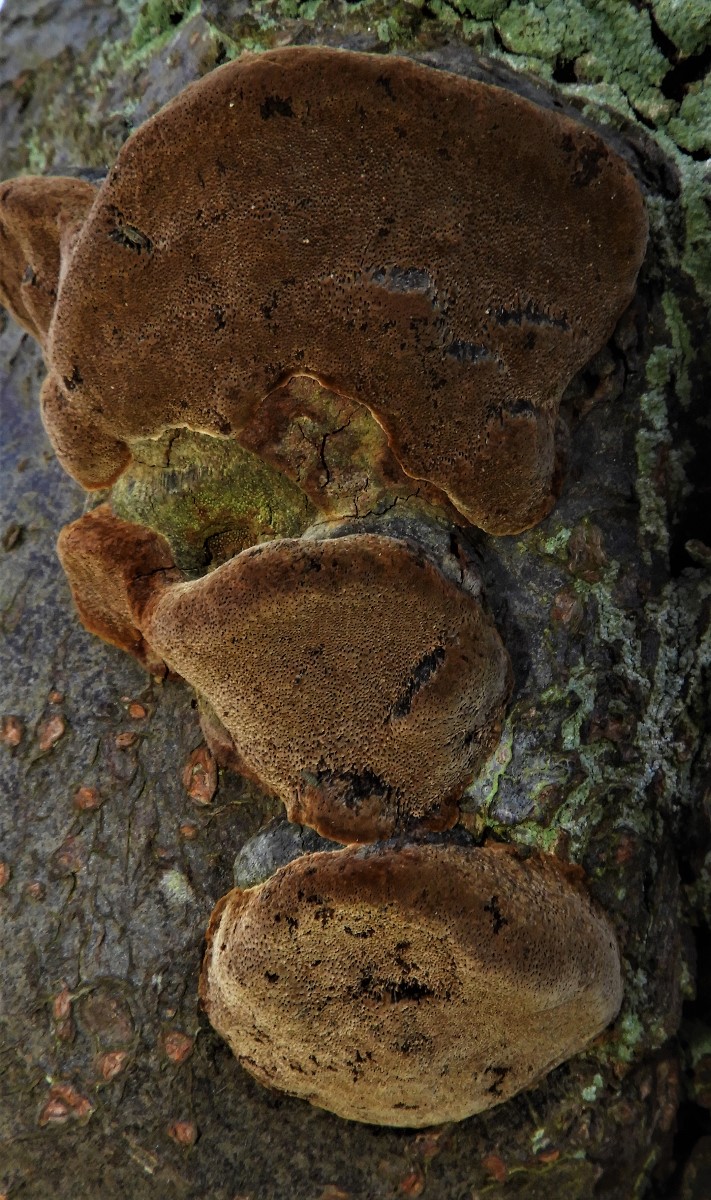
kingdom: Fungi
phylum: Basidiomycota
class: Agaricomycetes
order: Hymenochaetales
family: Hymenochaetaceae
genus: Phellinus
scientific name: Phellinus pomaceus
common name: blomme-ildporesvamp
